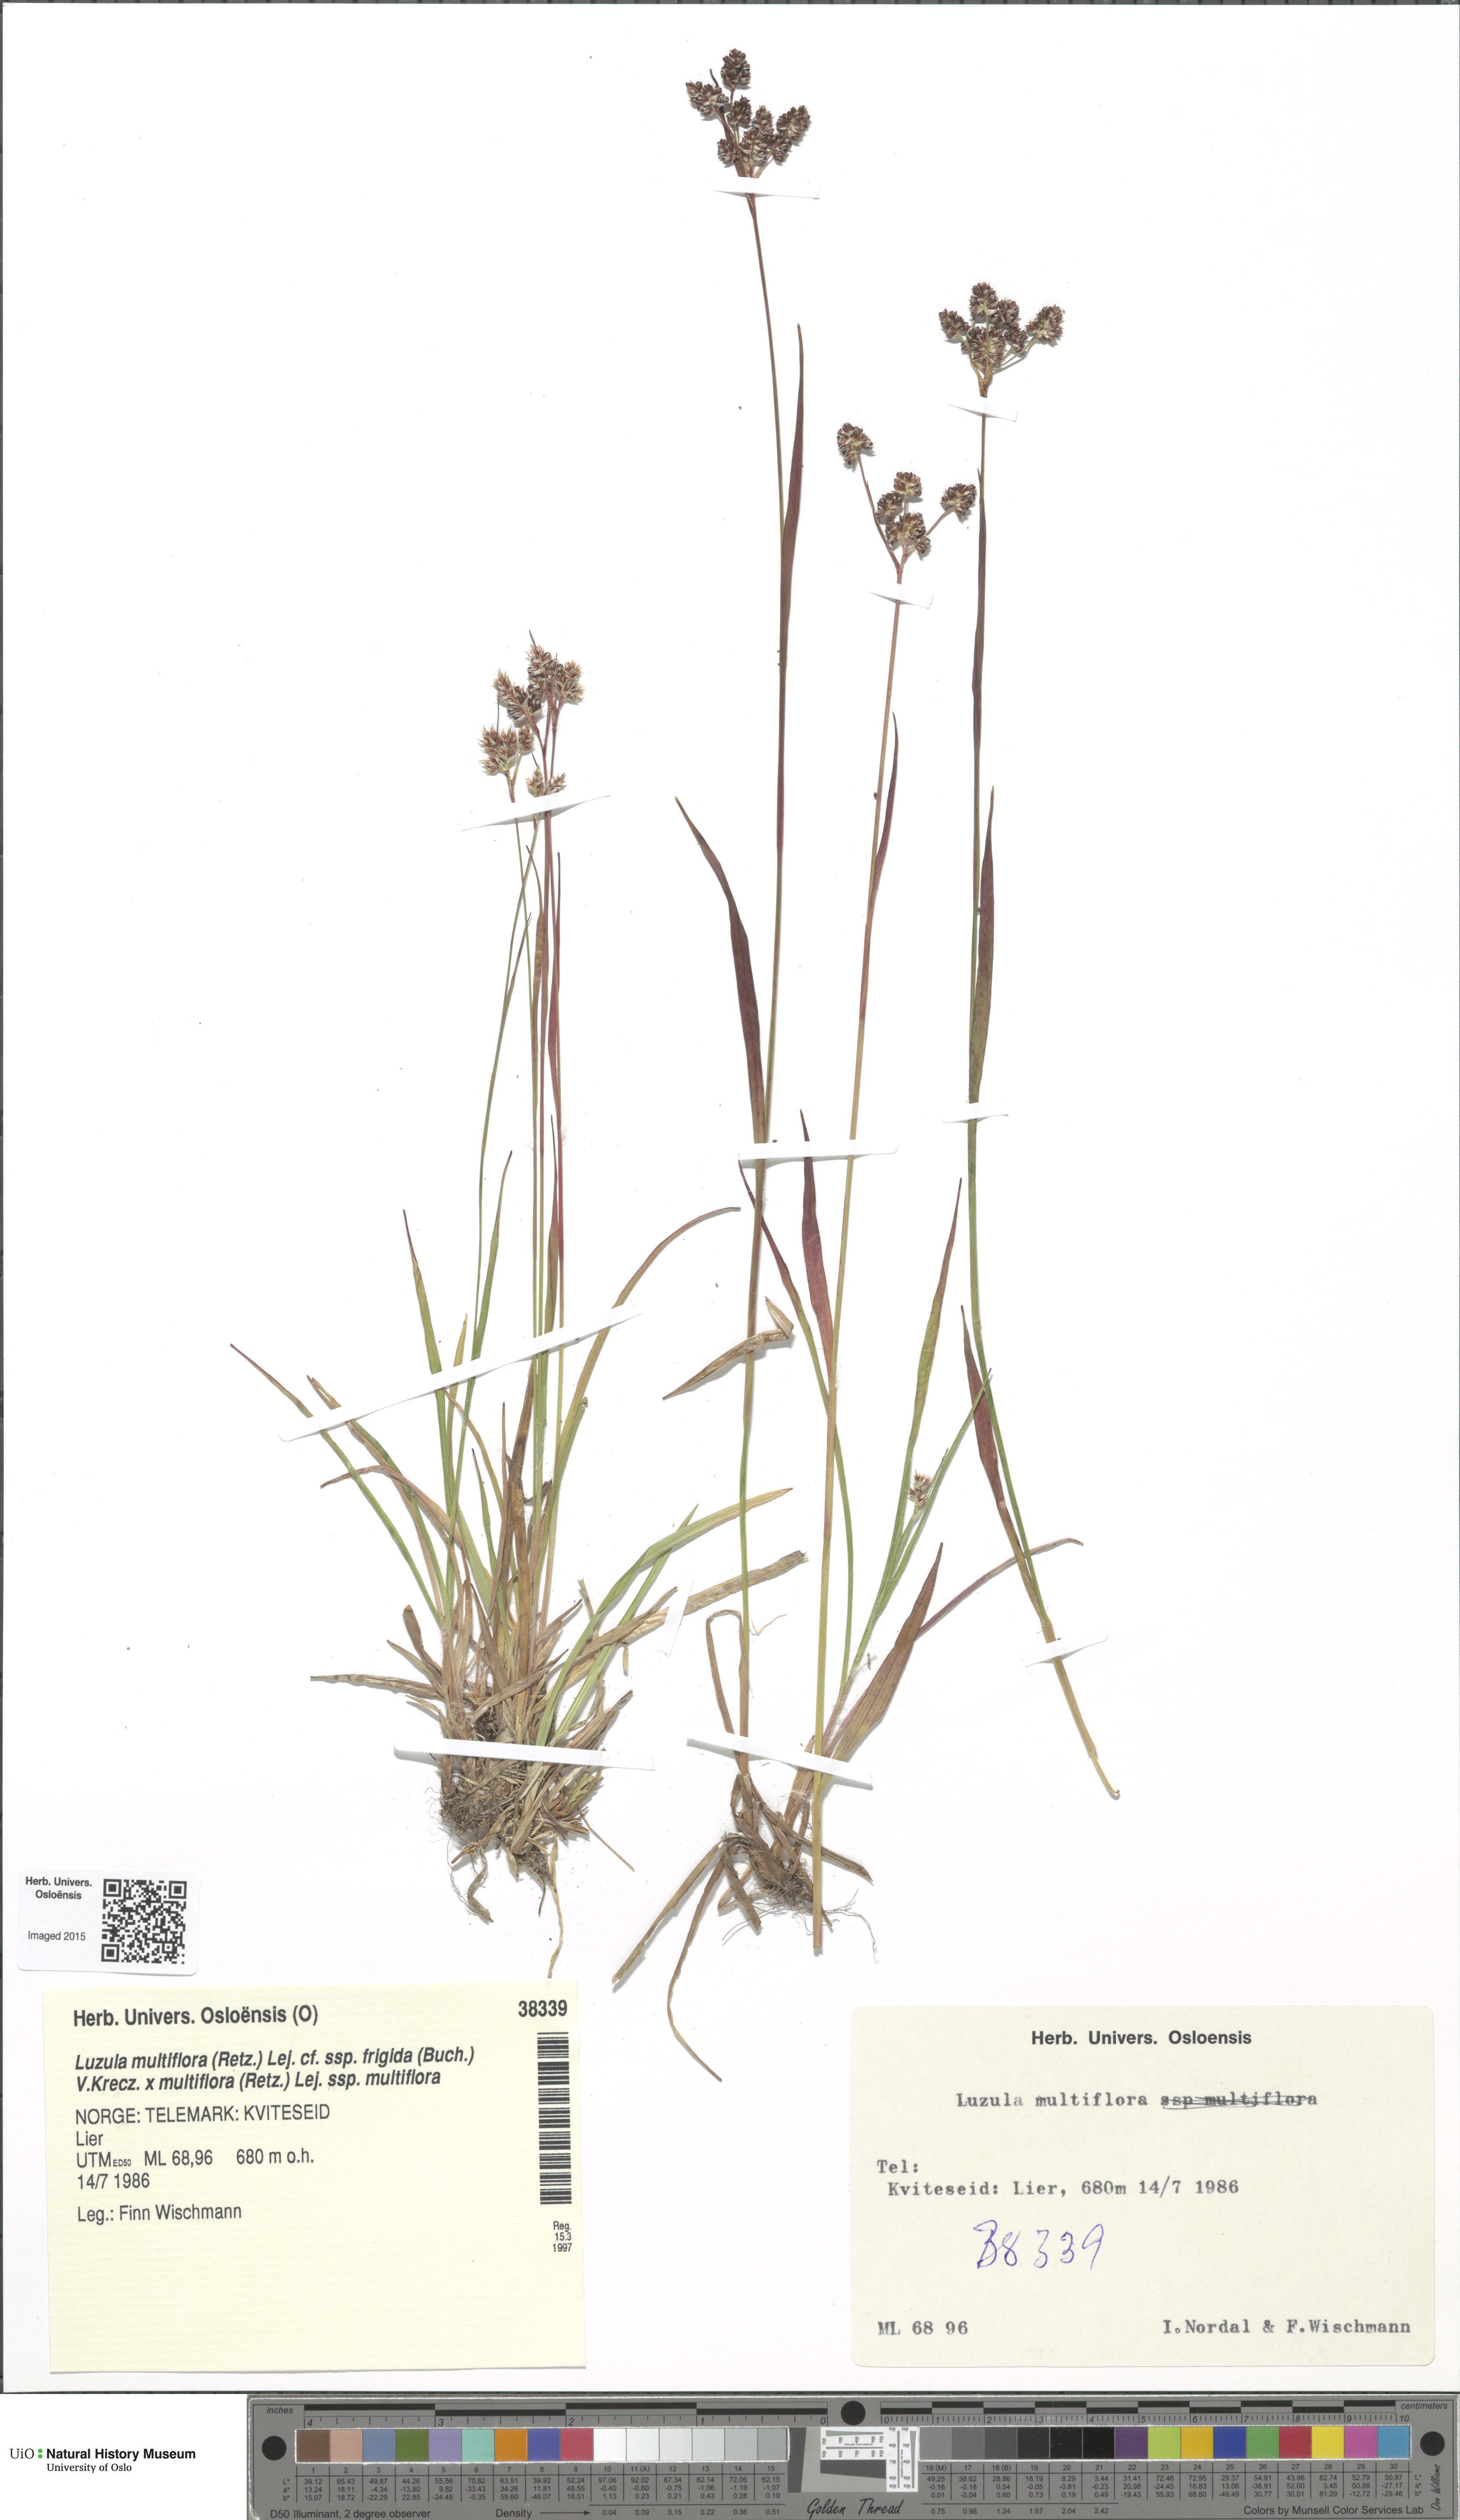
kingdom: Plantae
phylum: Tracheophyta
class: Liliopsida
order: Poales
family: Juncaceae
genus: Luzula
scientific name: Luzula
